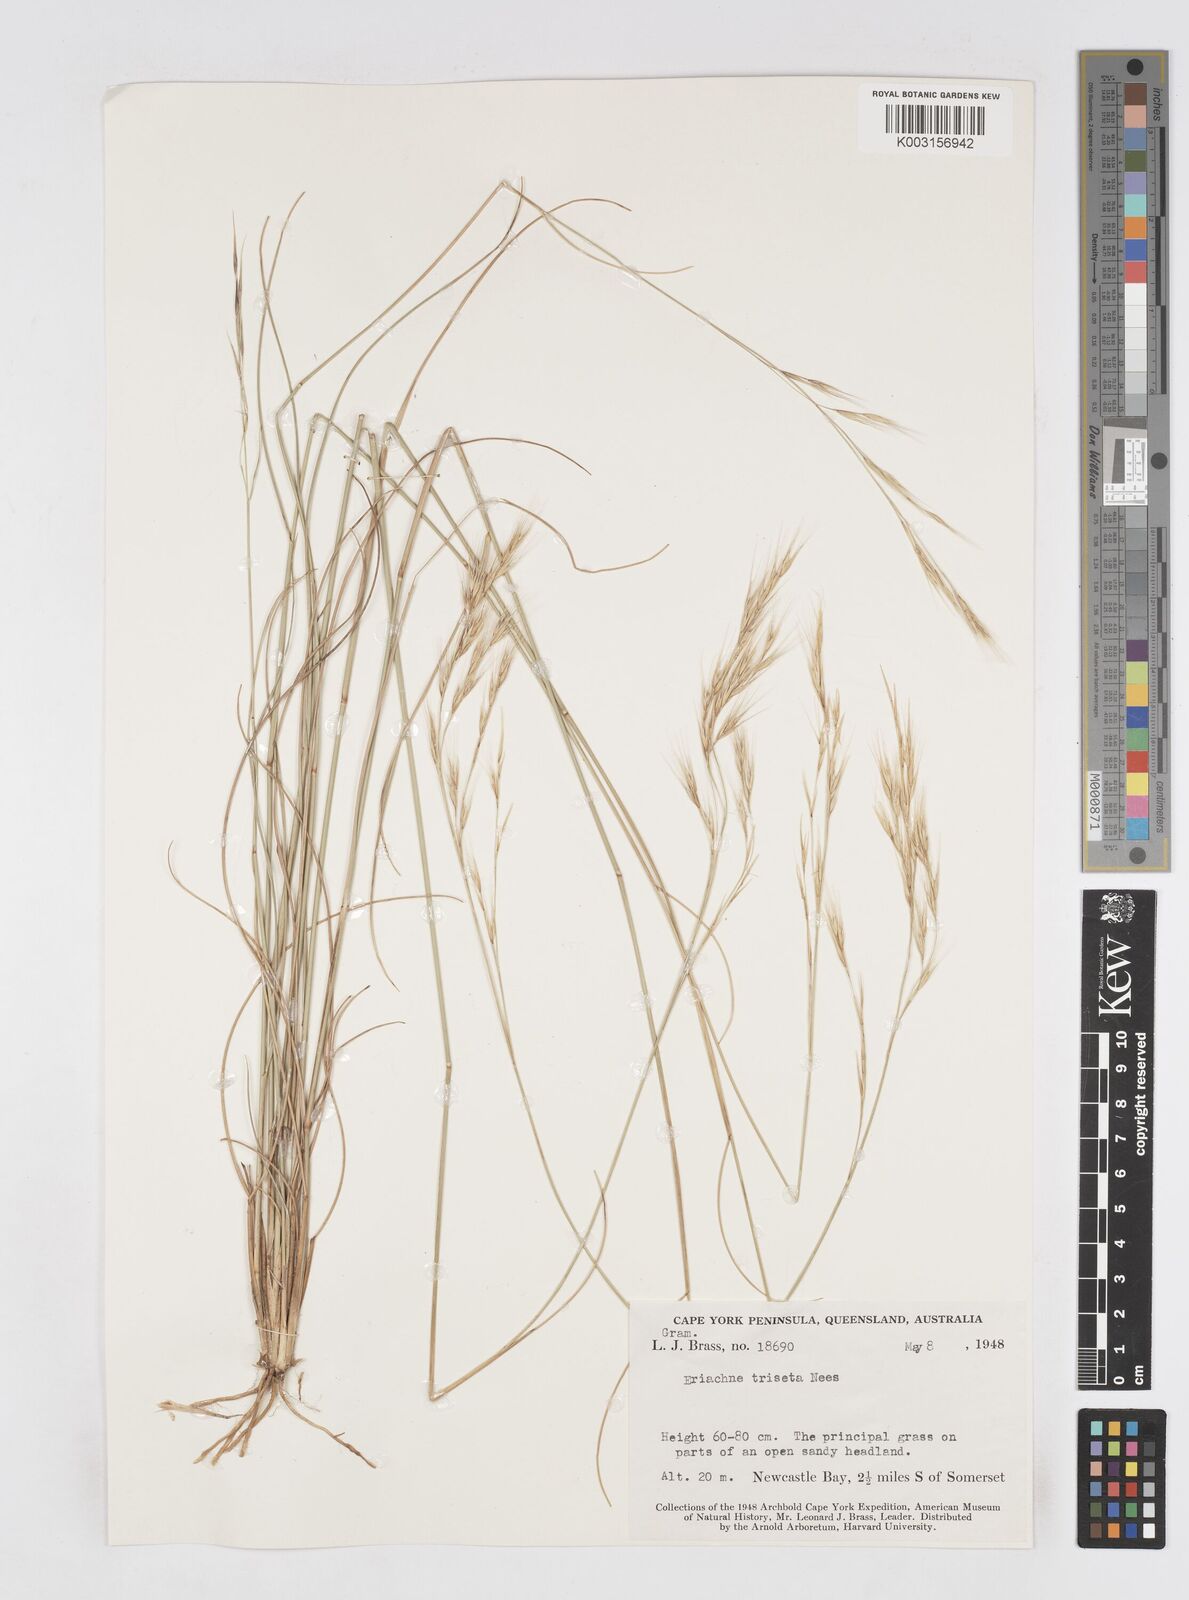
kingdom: Plantae
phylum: Tracheophyta
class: Liliopsida
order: Poales
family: Poaceae
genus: Eriachne
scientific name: Eriachne triseta
